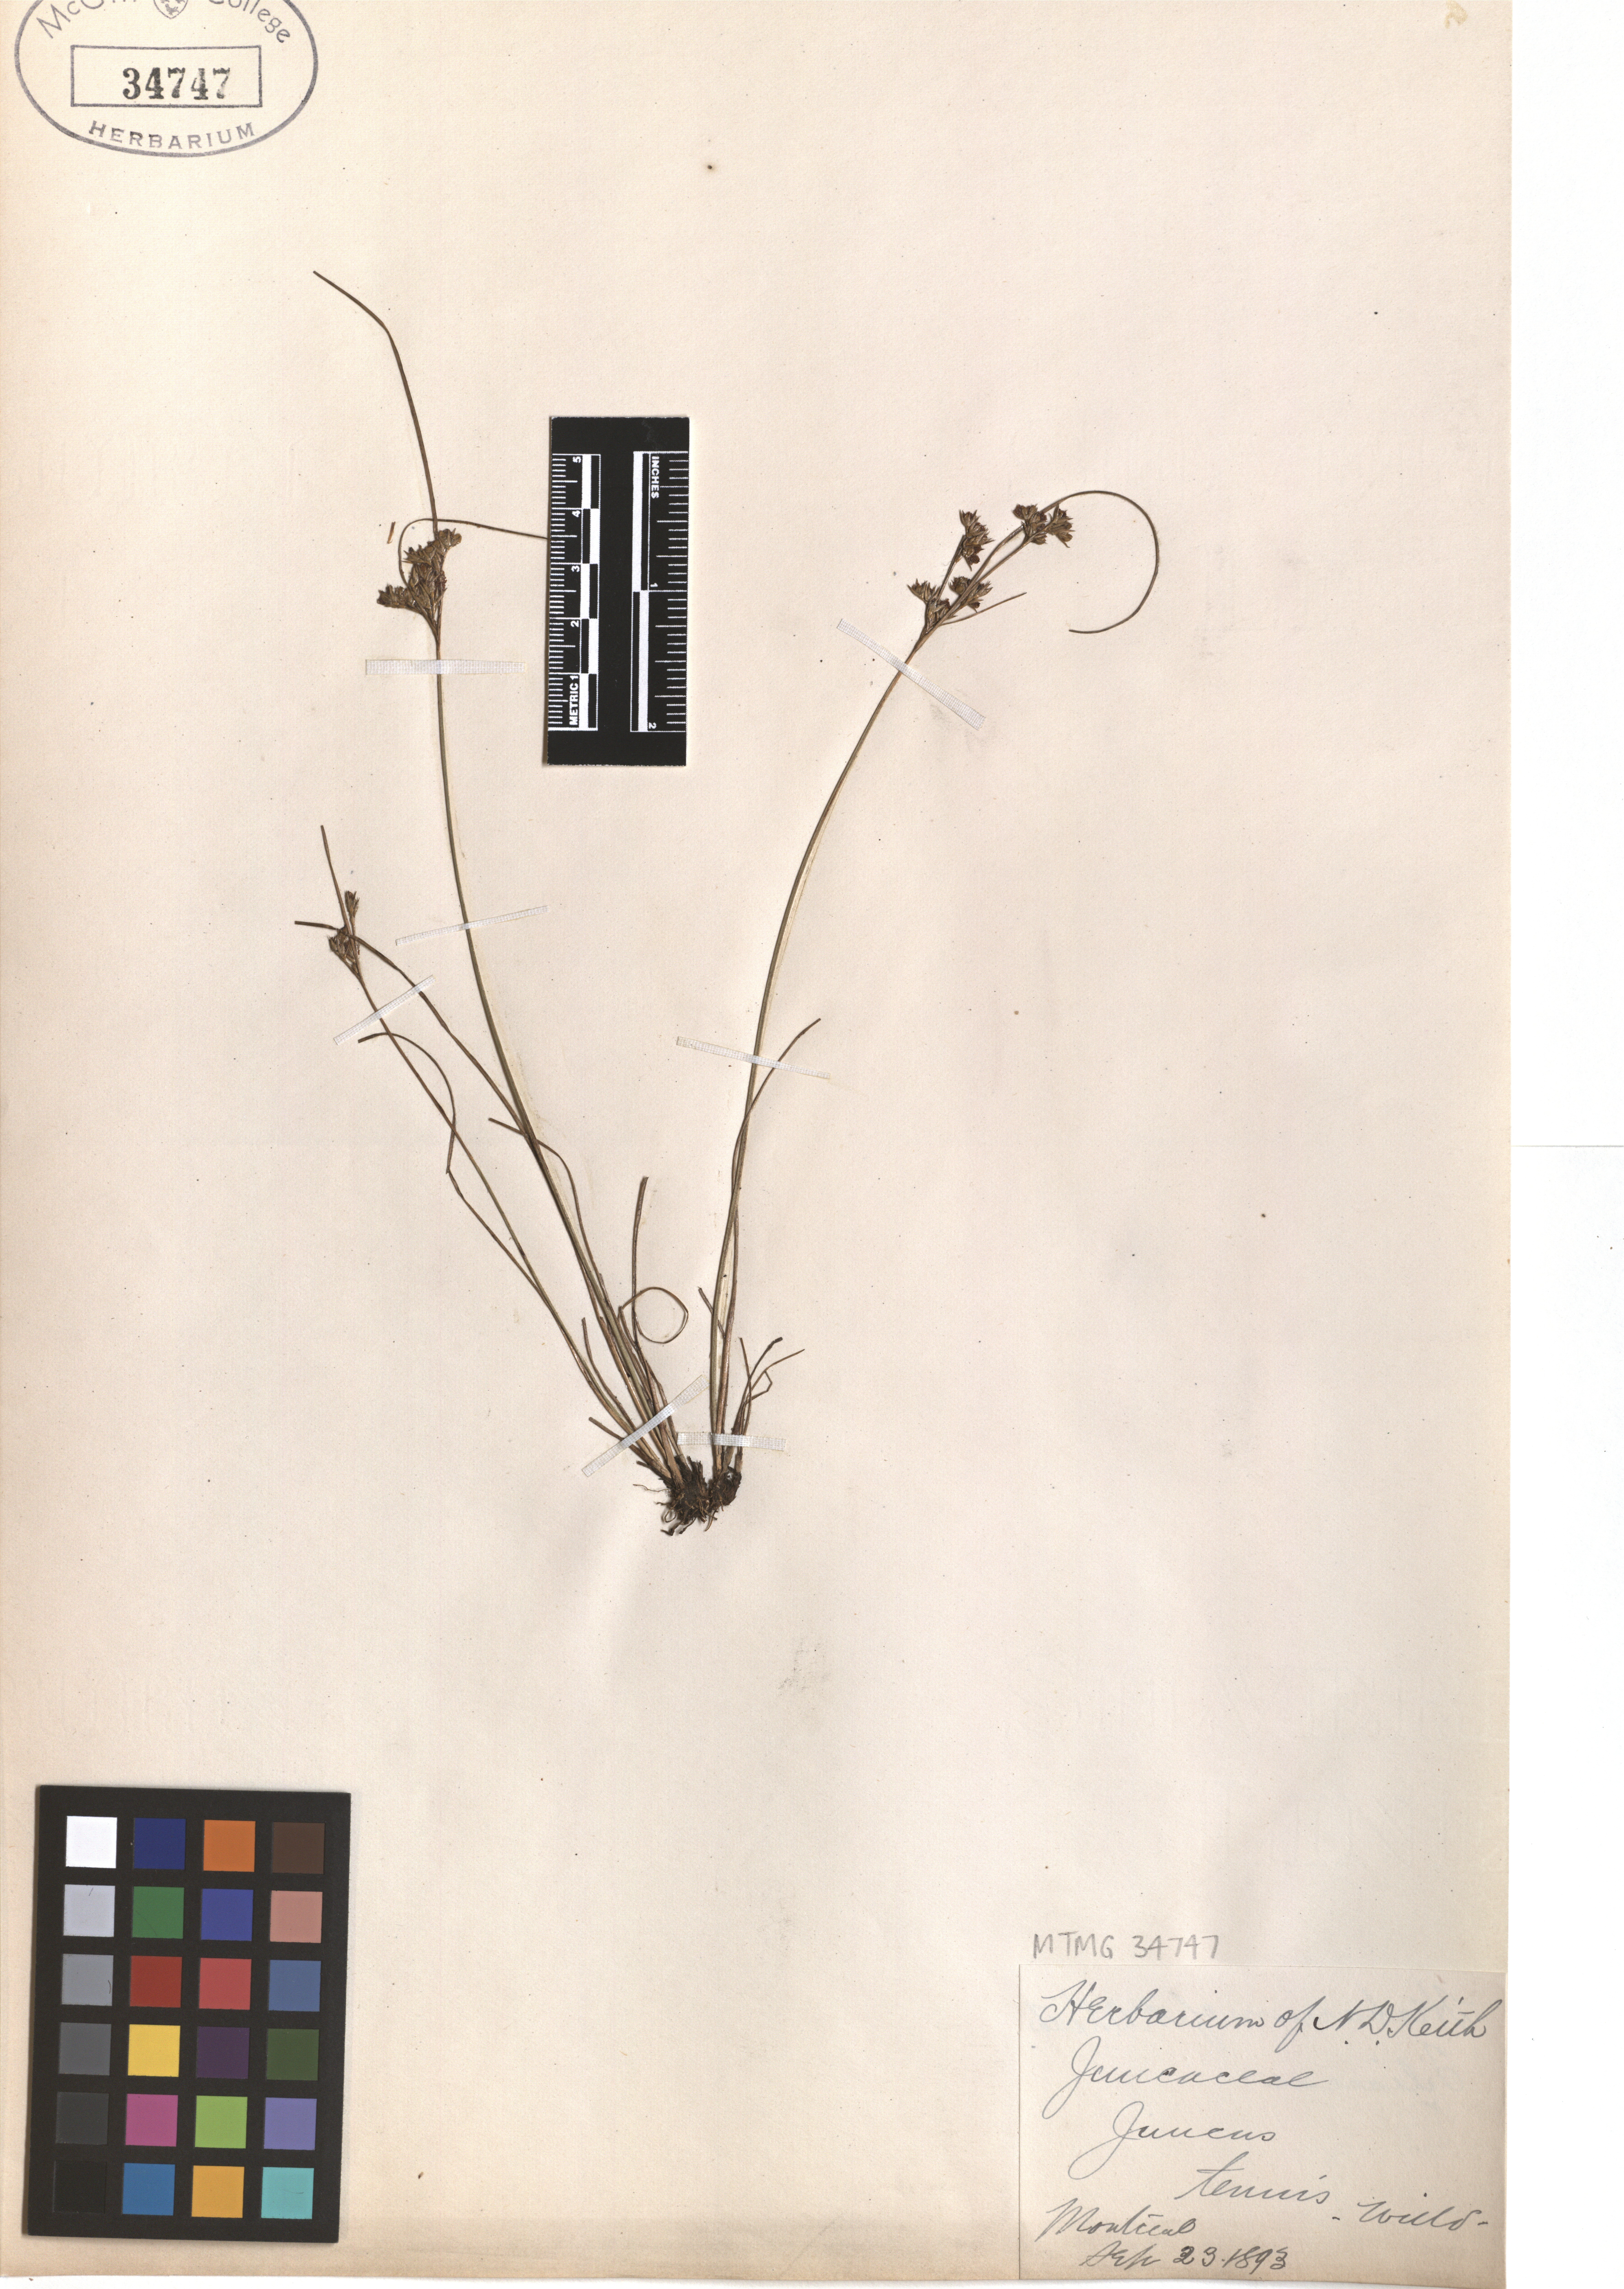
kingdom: Plantae
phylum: Tracheophyta
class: Liliopsida
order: Poales
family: Juncaceae
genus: Juncus
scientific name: Juncus tenuis
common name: Slender rush
